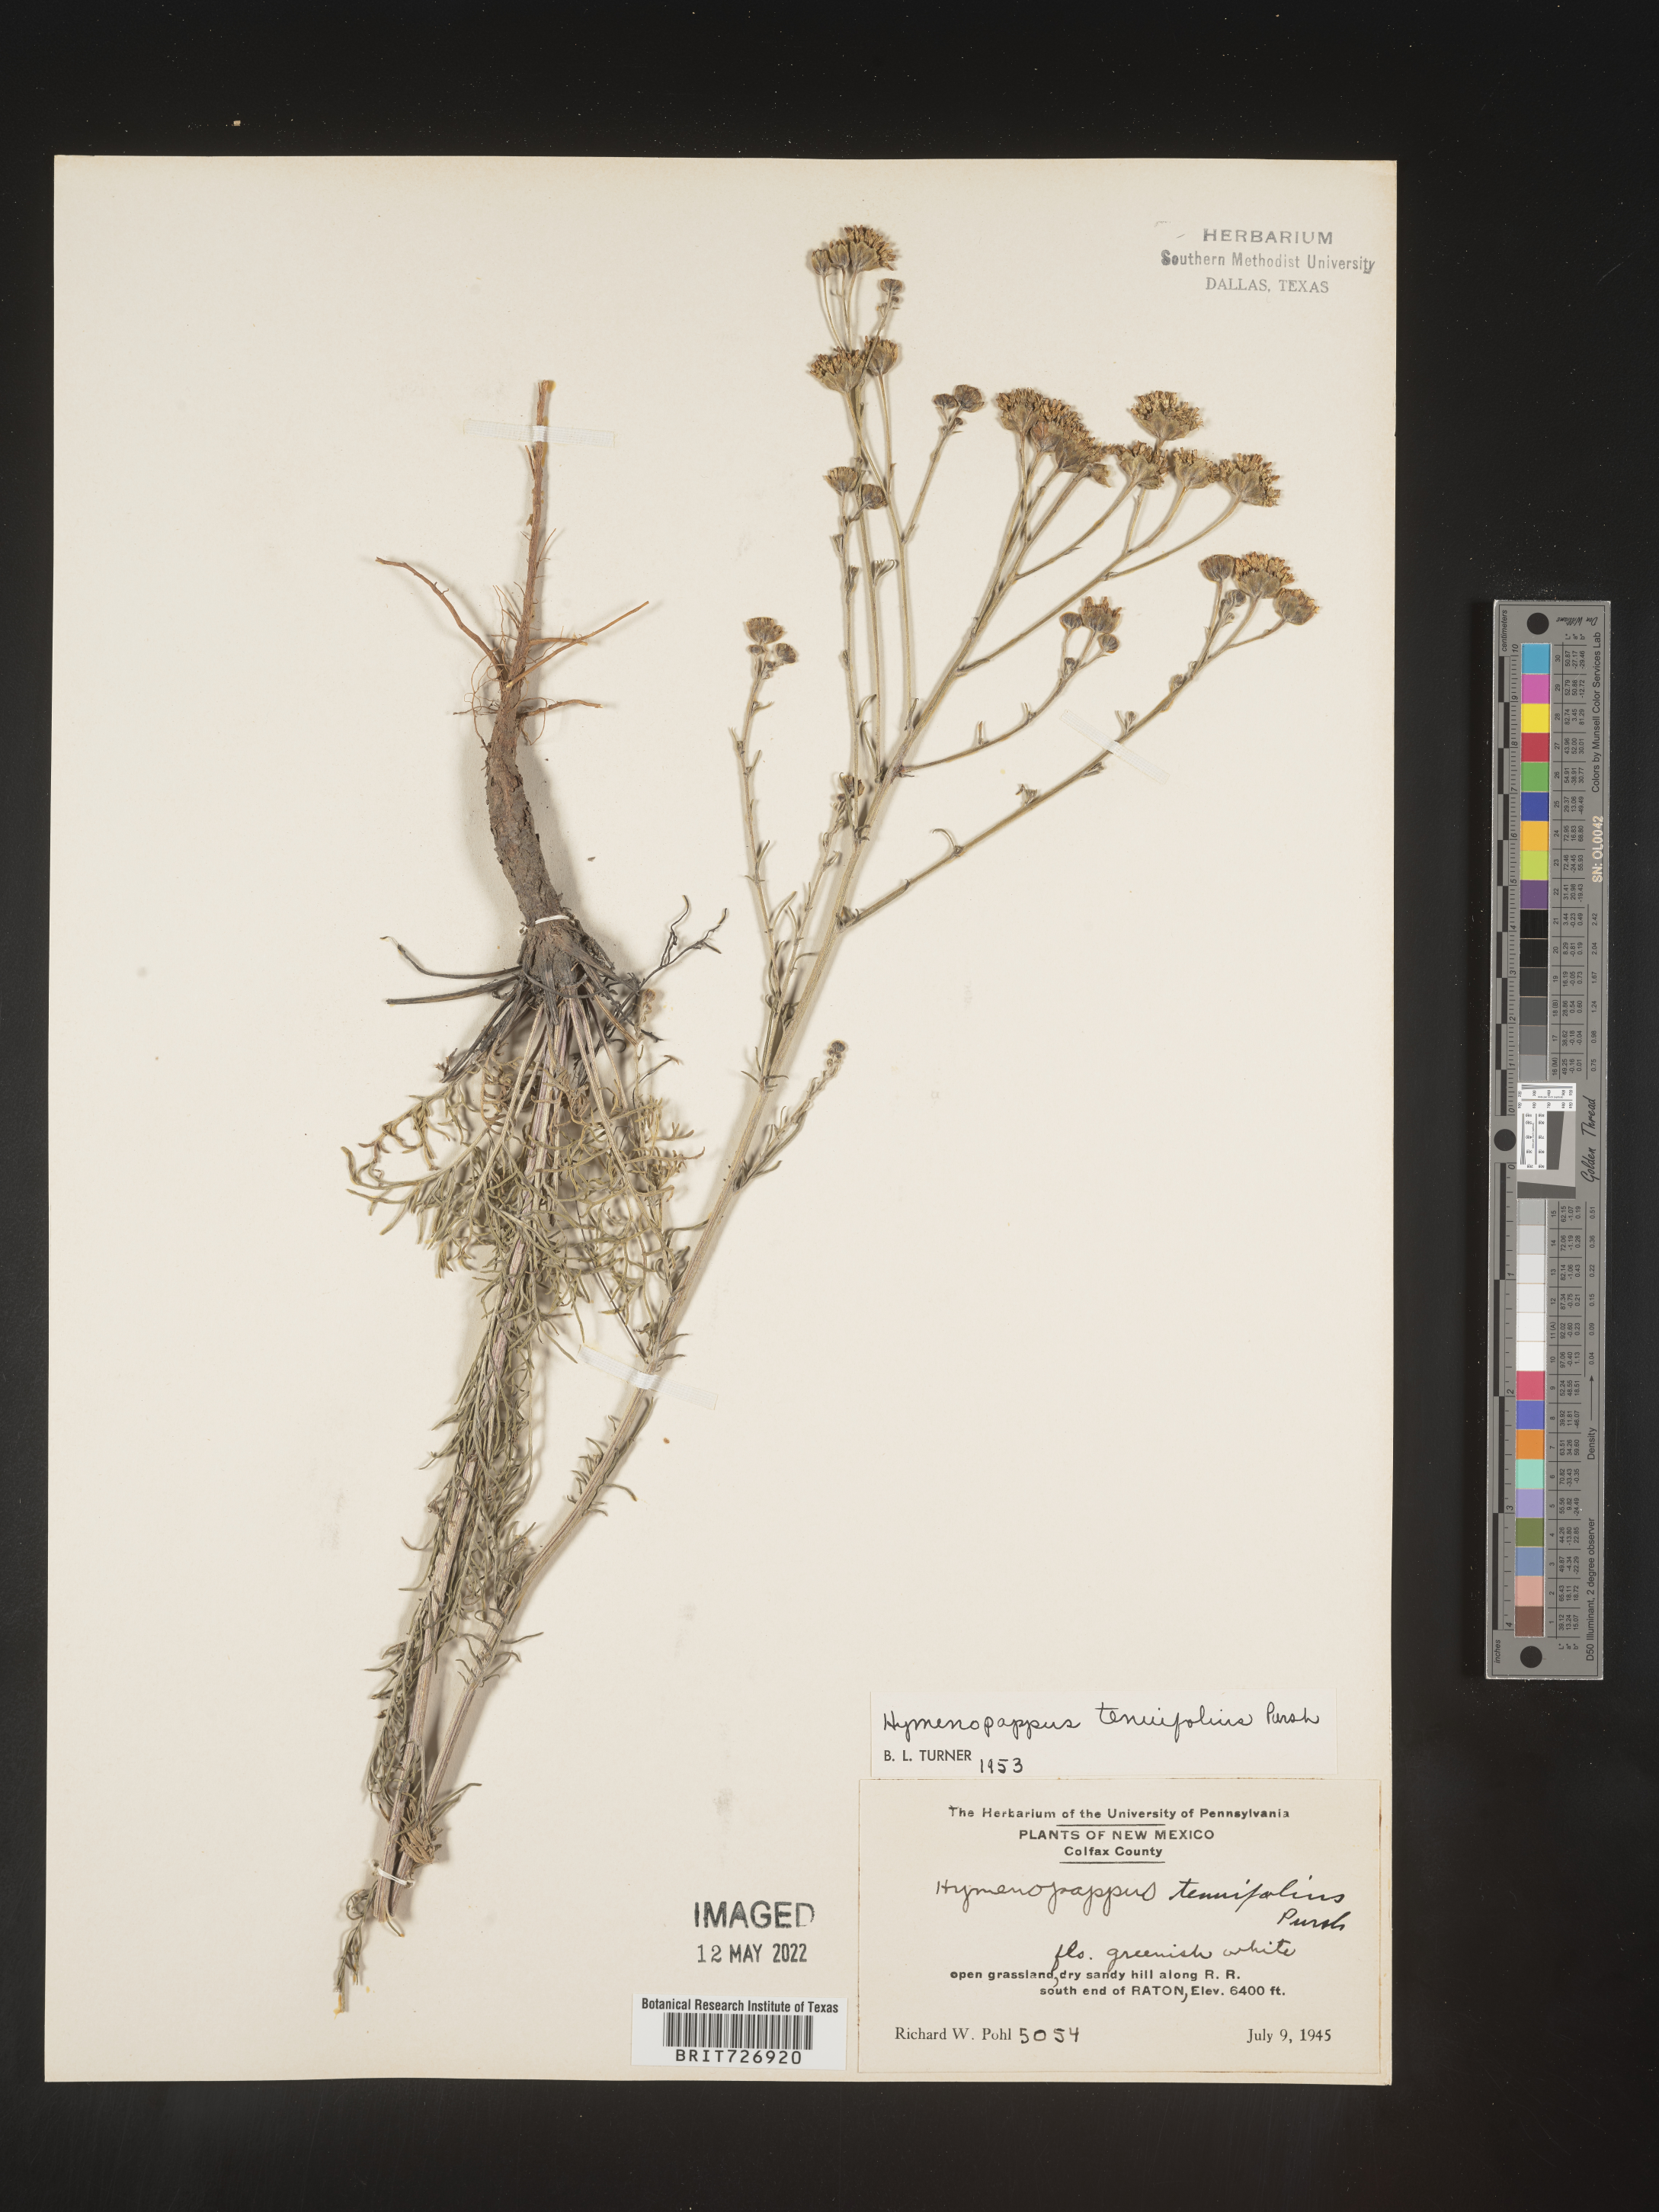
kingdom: Plantae
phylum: Tracheophyta
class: Magnoliopsida
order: Asterales
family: Asteraceae
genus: Hymenopappus
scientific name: Hymenopappus tenuifolius
